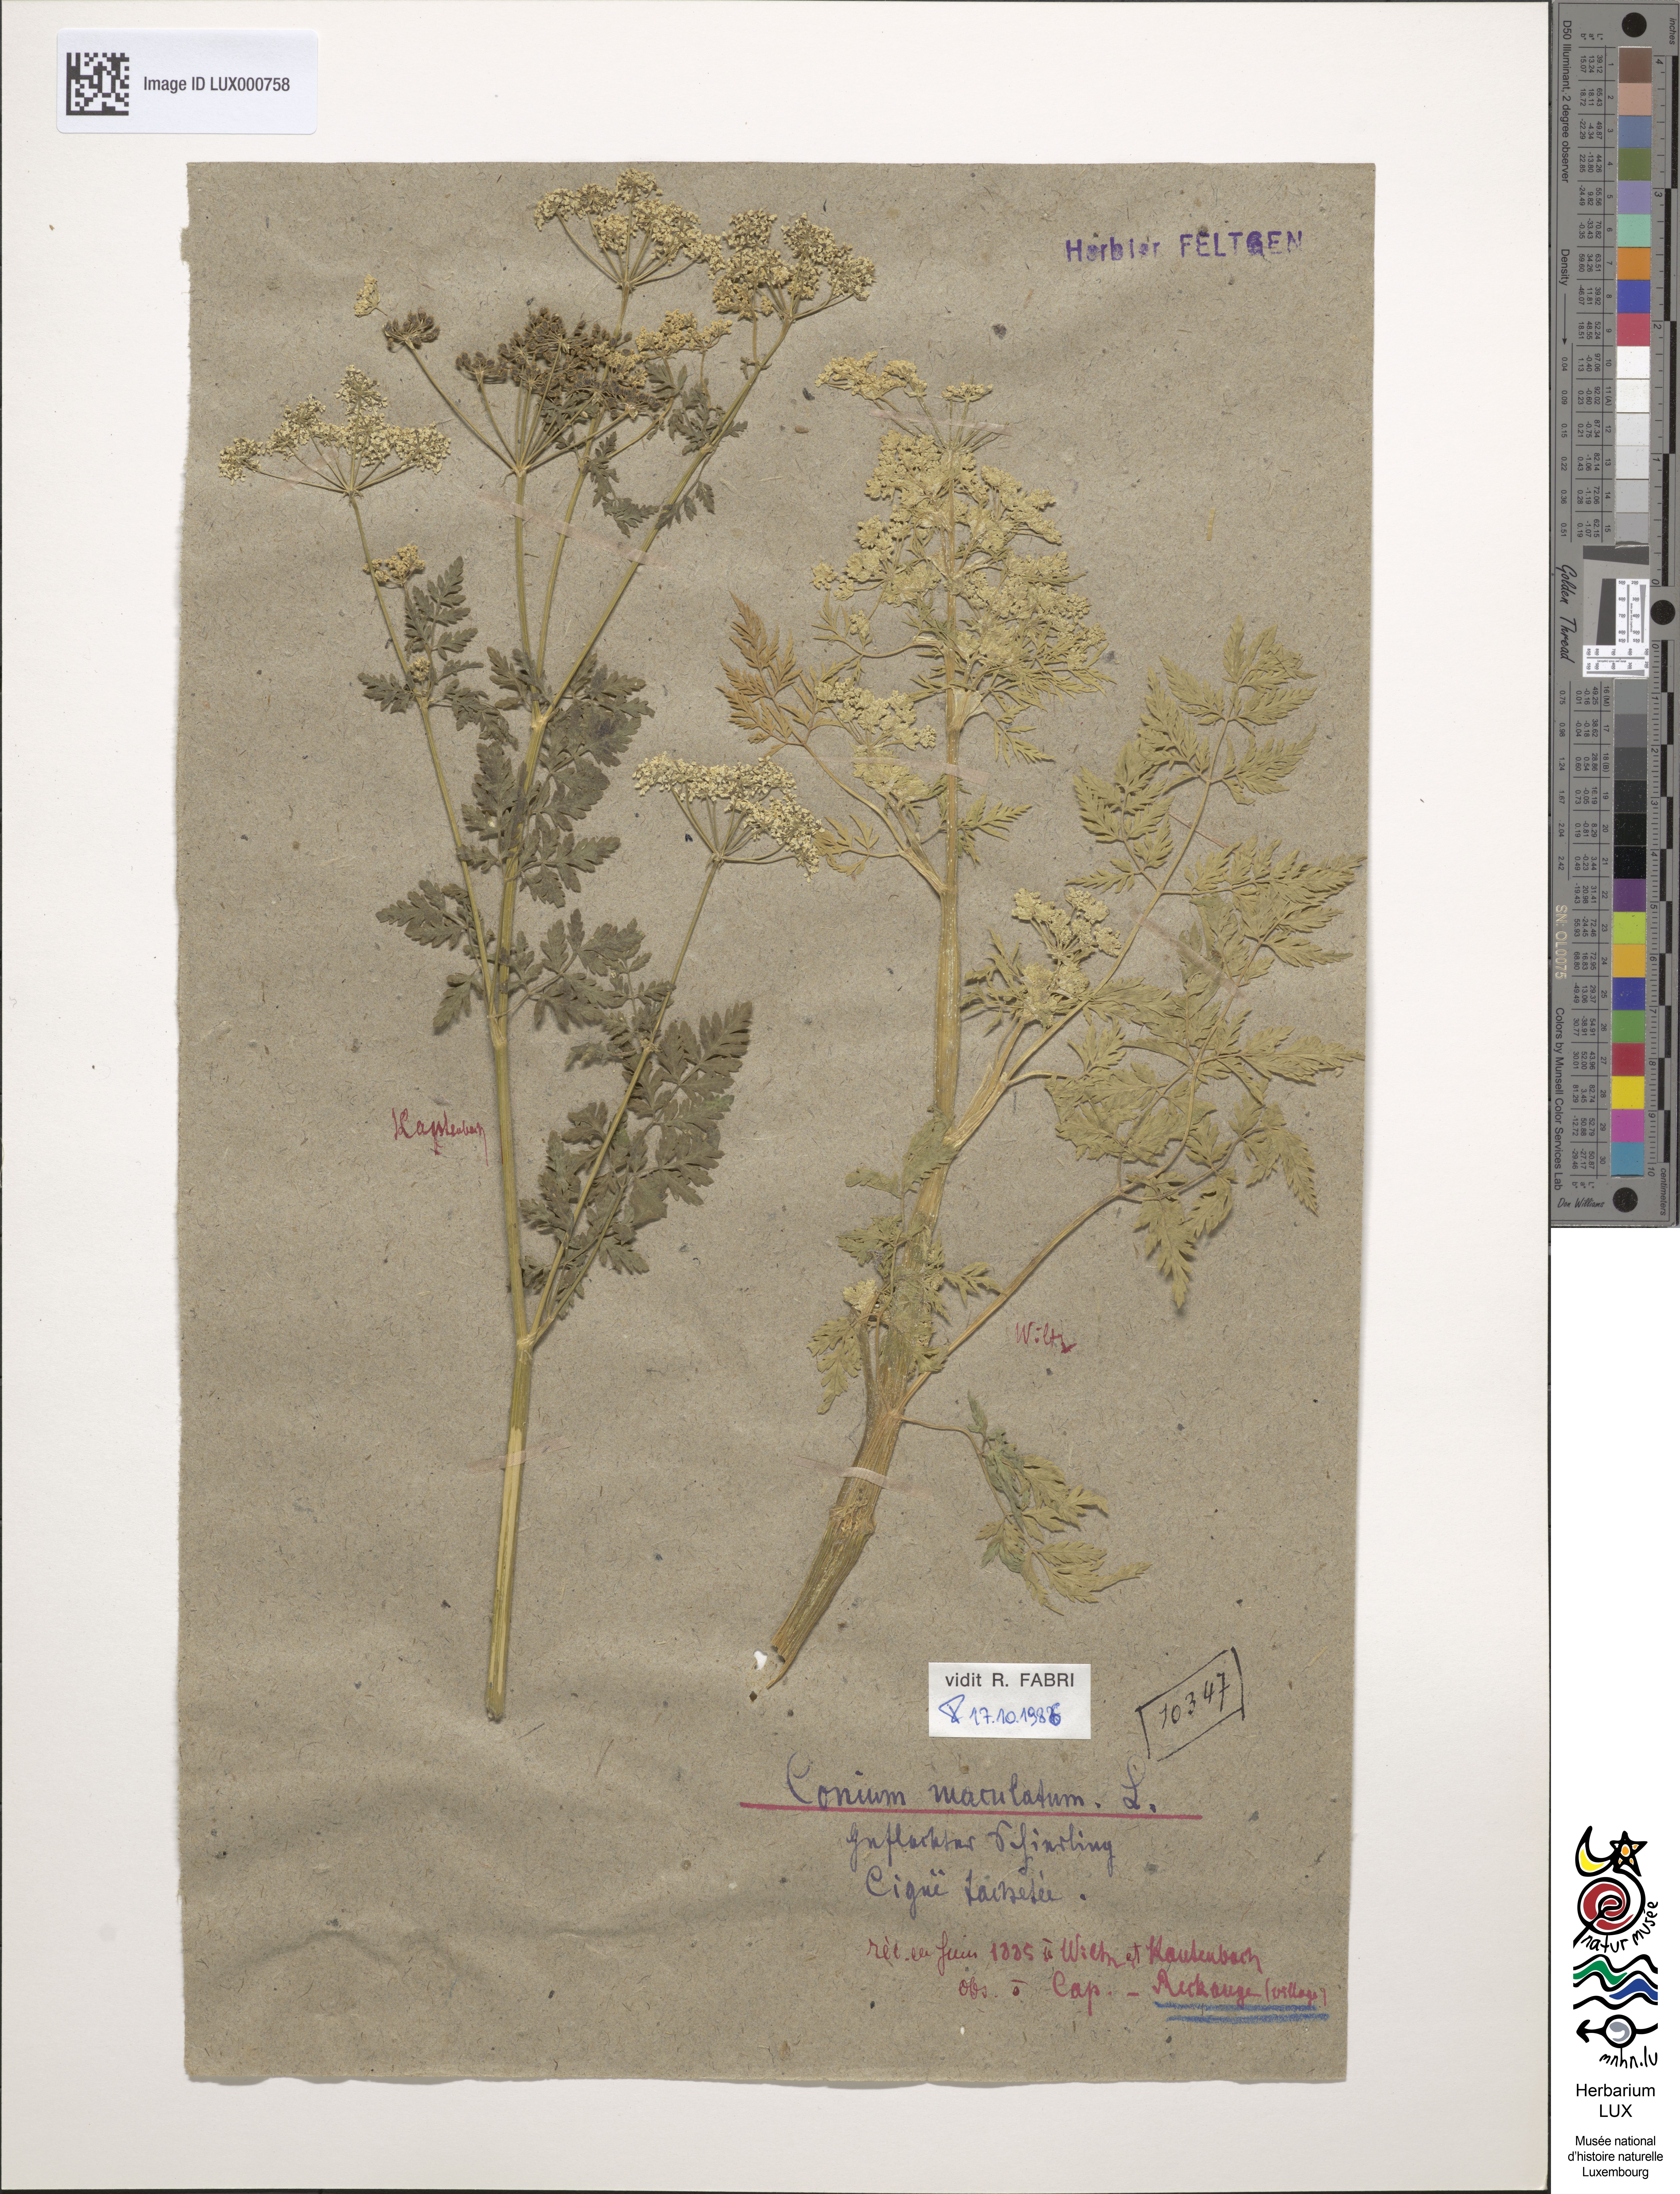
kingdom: Plantae
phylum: Tracheophyta
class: Magnoliopsida
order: Apiales
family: Apiaceae
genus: Conium
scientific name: Conium maculatum
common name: Hemlock
